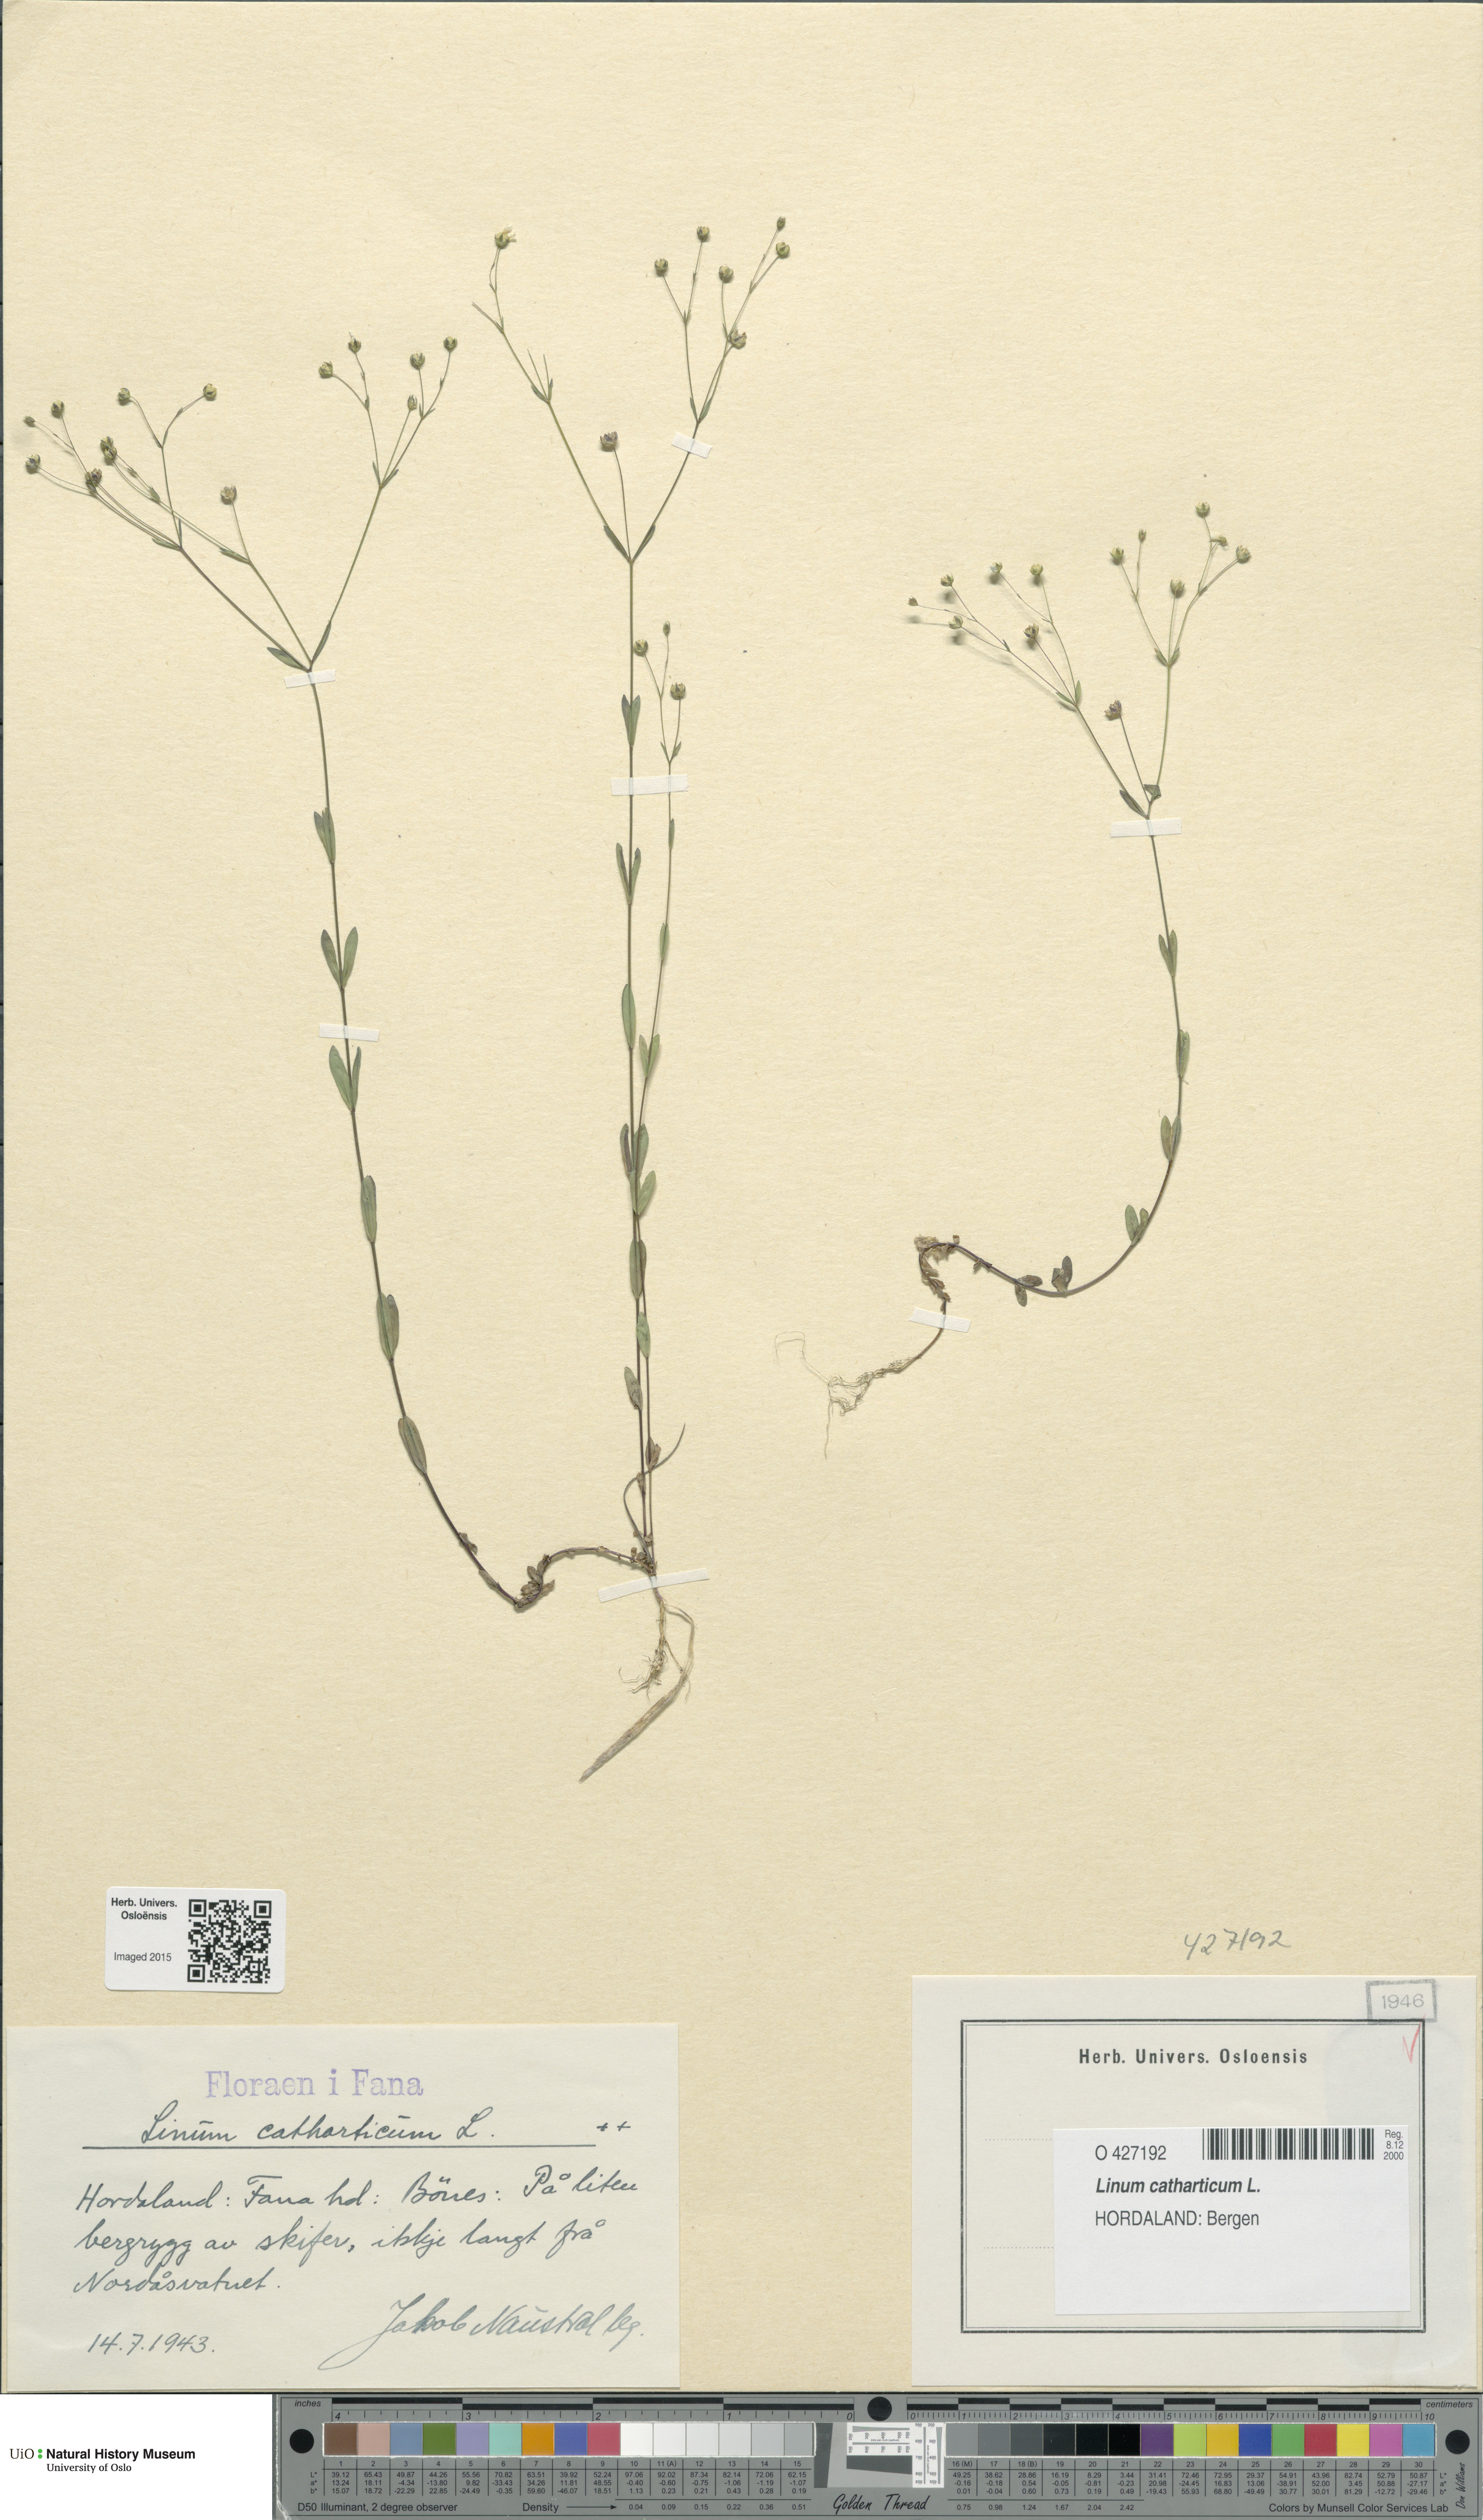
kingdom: Plantae
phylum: Tracheophyta
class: Magnoliopsida
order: Malpighiales
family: Linaceae
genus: Linum
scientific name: Linum catharticum
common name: Fairy flax
